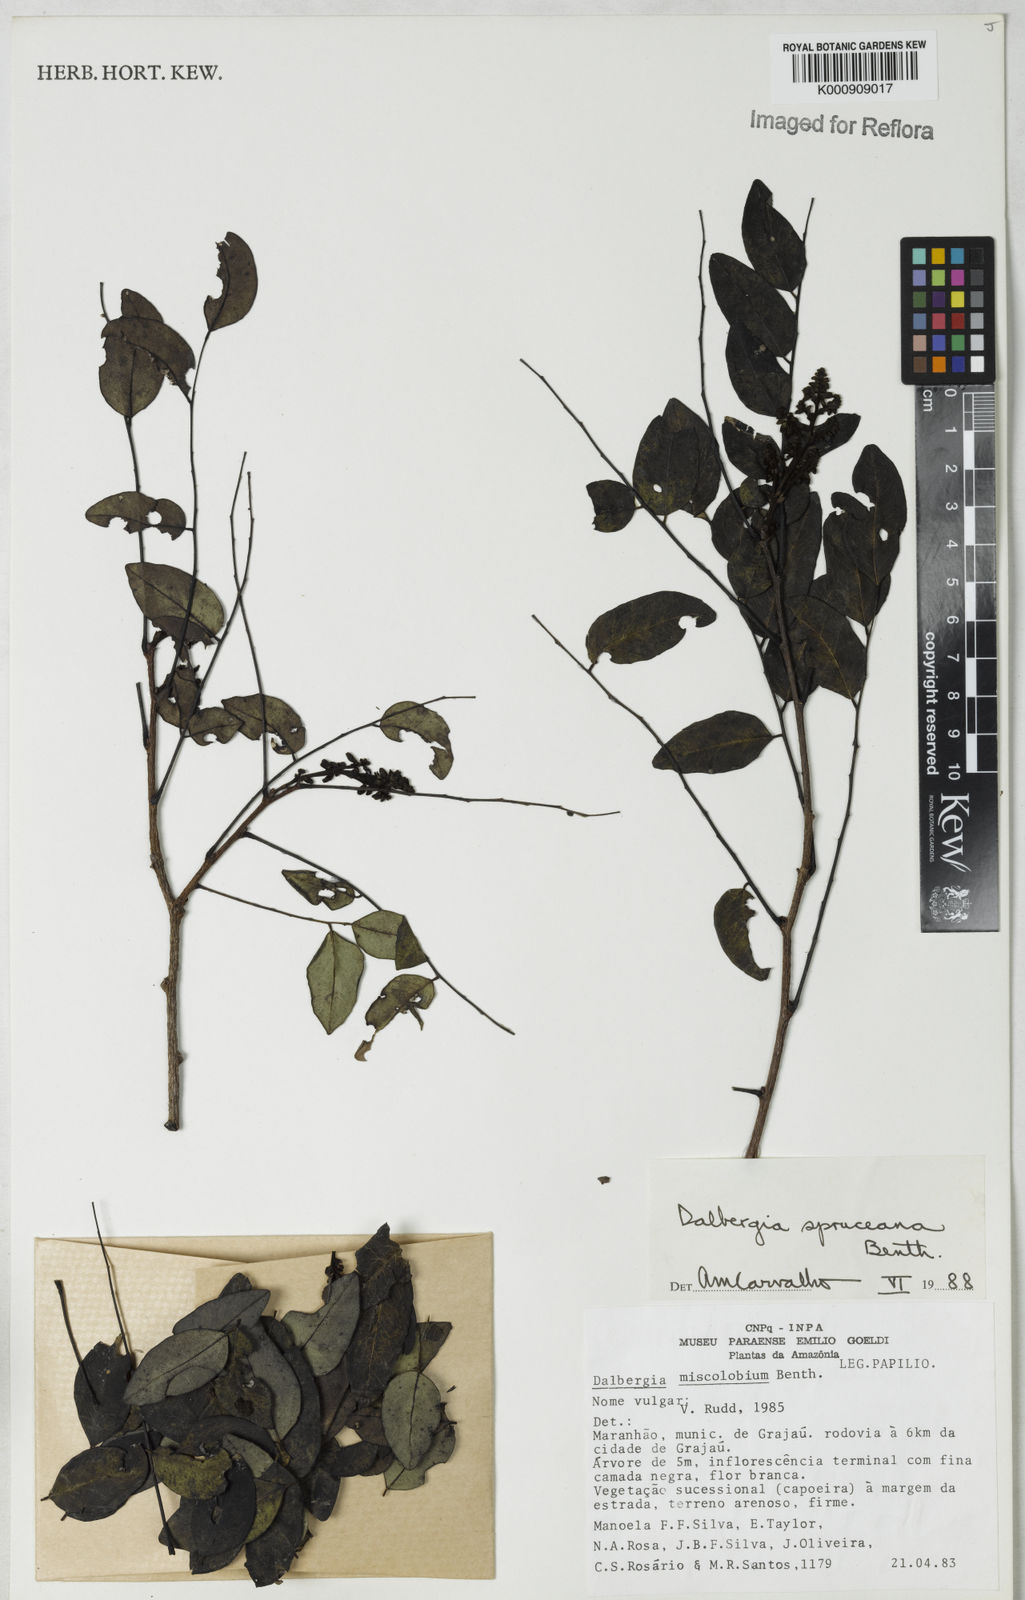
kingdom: Plantae
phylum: Tracheophyta
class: Magnoliopsida
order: Fabales
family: Fabaceae
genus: Dalbergia
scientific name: Dalbergia spruceana
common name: Amazon rosewood
